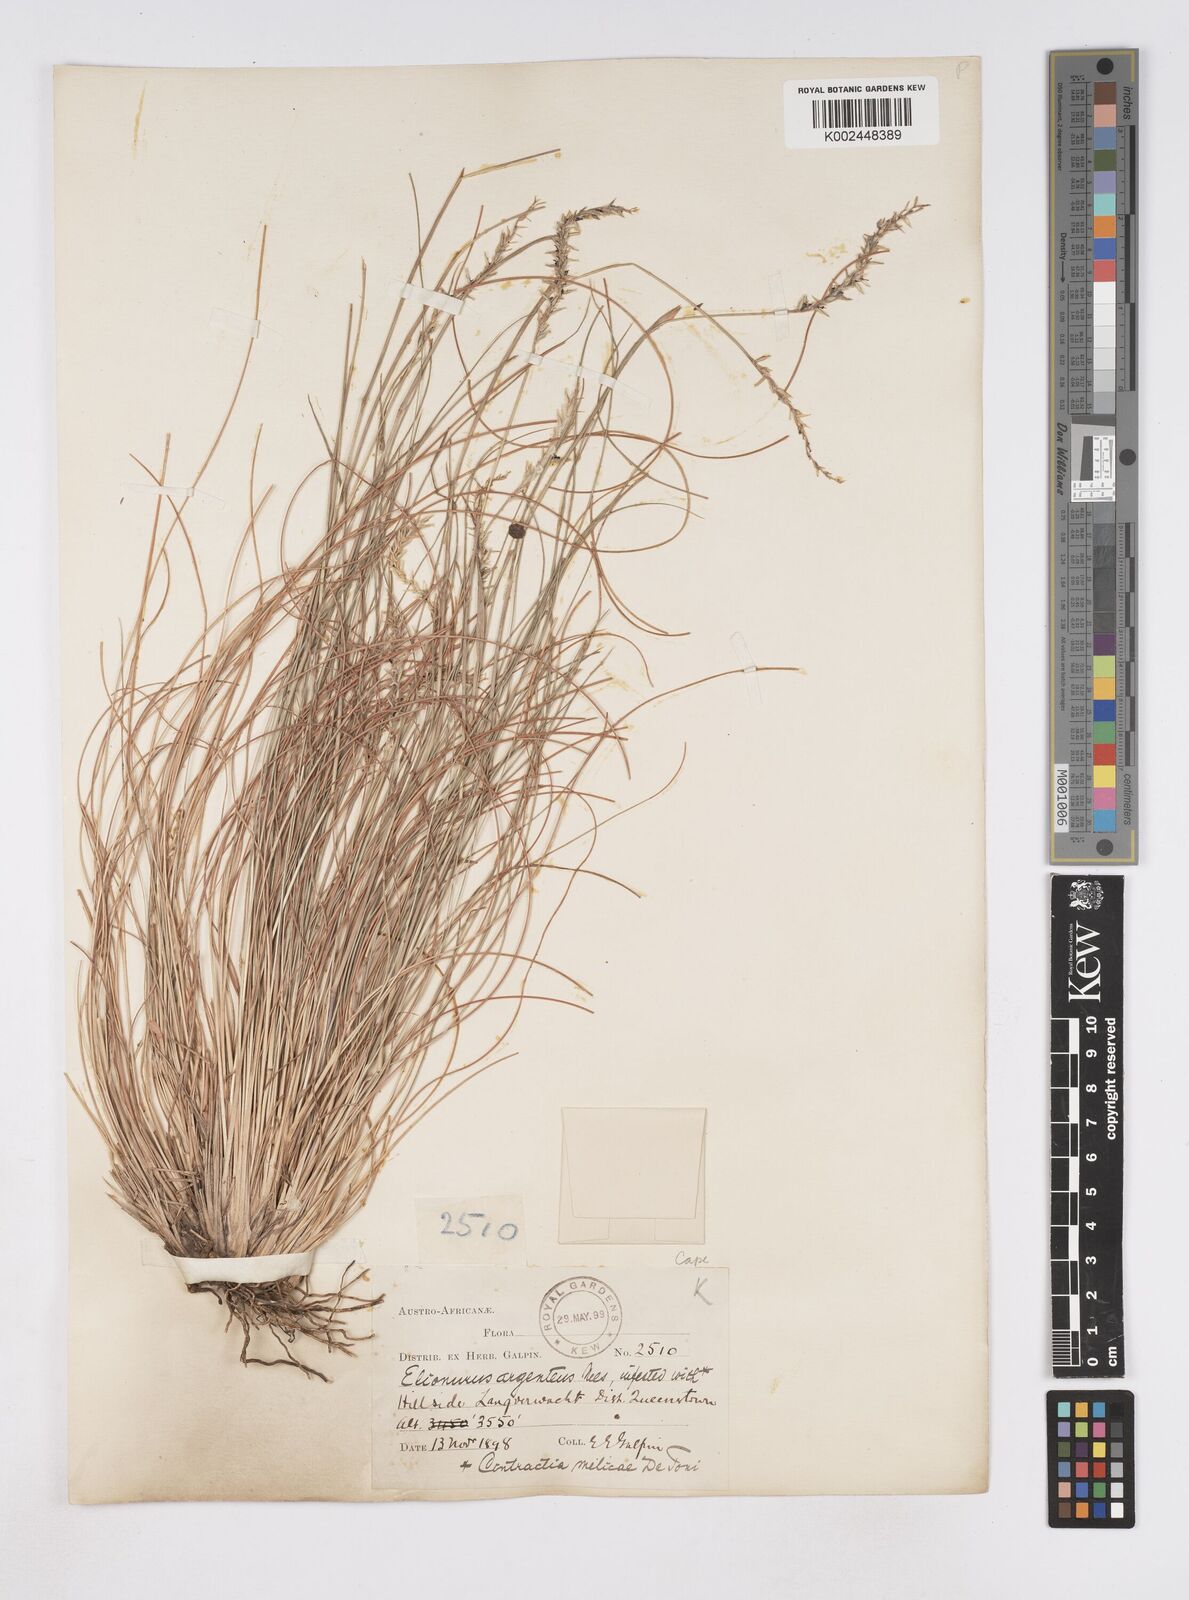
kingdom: Plantae
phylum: Tracheophyta
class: Liliopsida
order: Poales
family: Poaceae
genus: Elionurus
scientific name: Elionurus muticus
